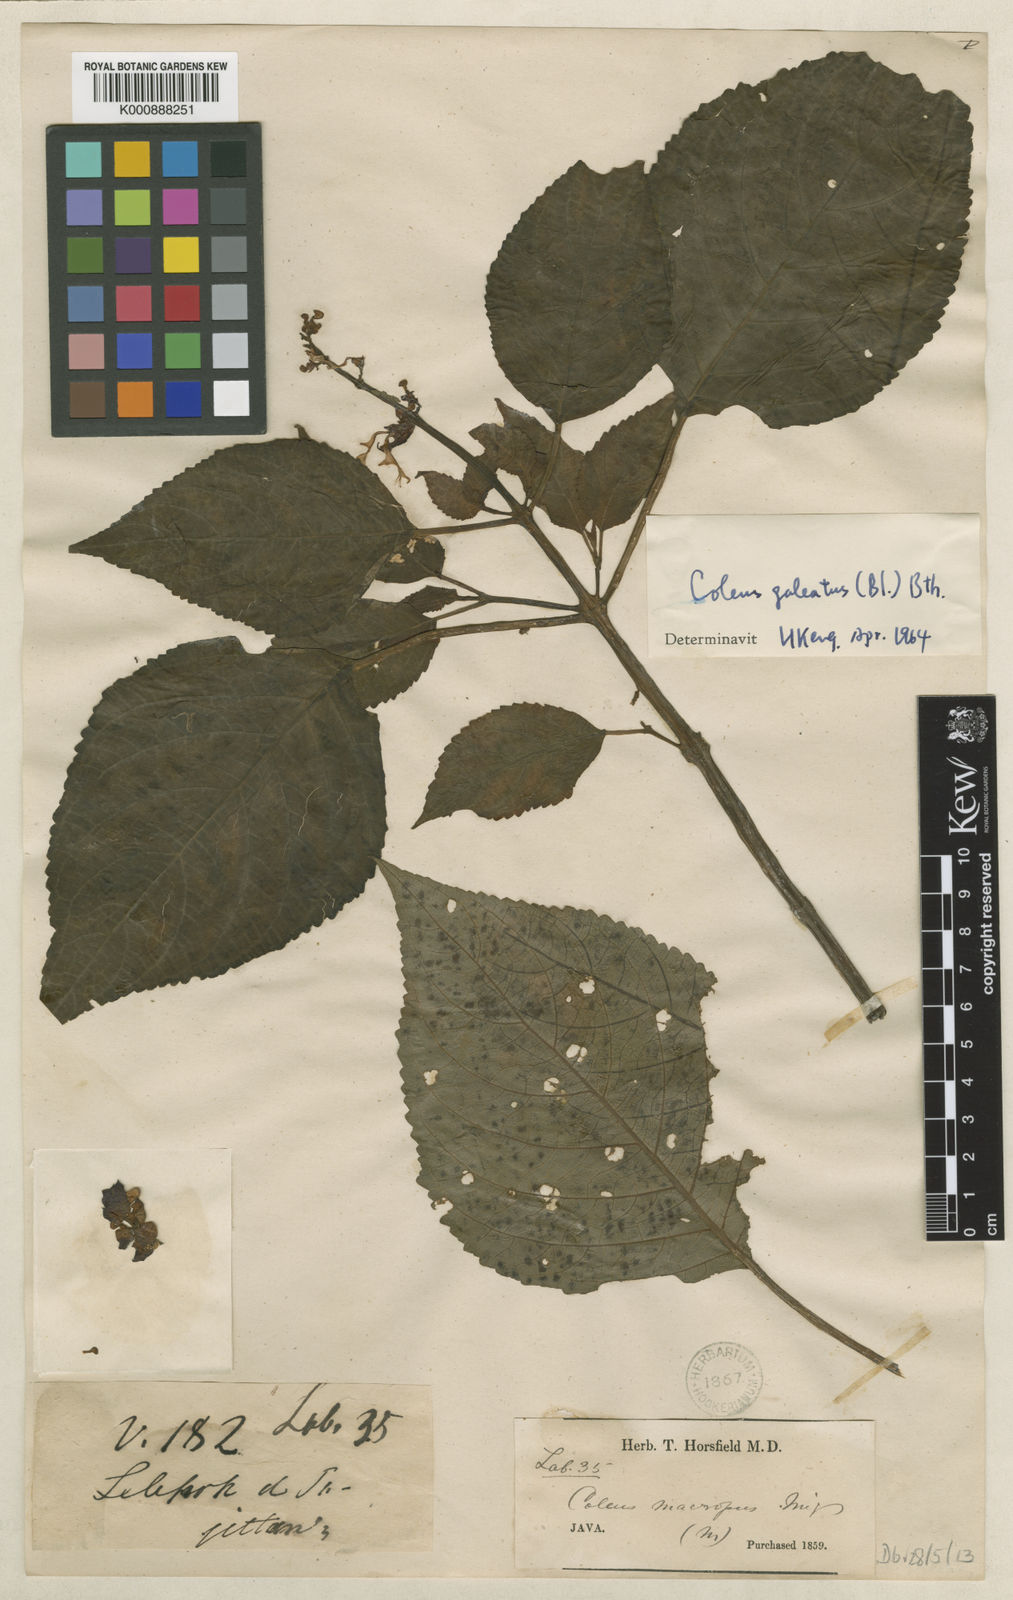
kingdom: Plantae
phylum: Tracheophyta
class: Magnoliopsida
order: Lamiales
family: Lamiaceae
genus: Coleus
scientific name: Coleus galeatus
